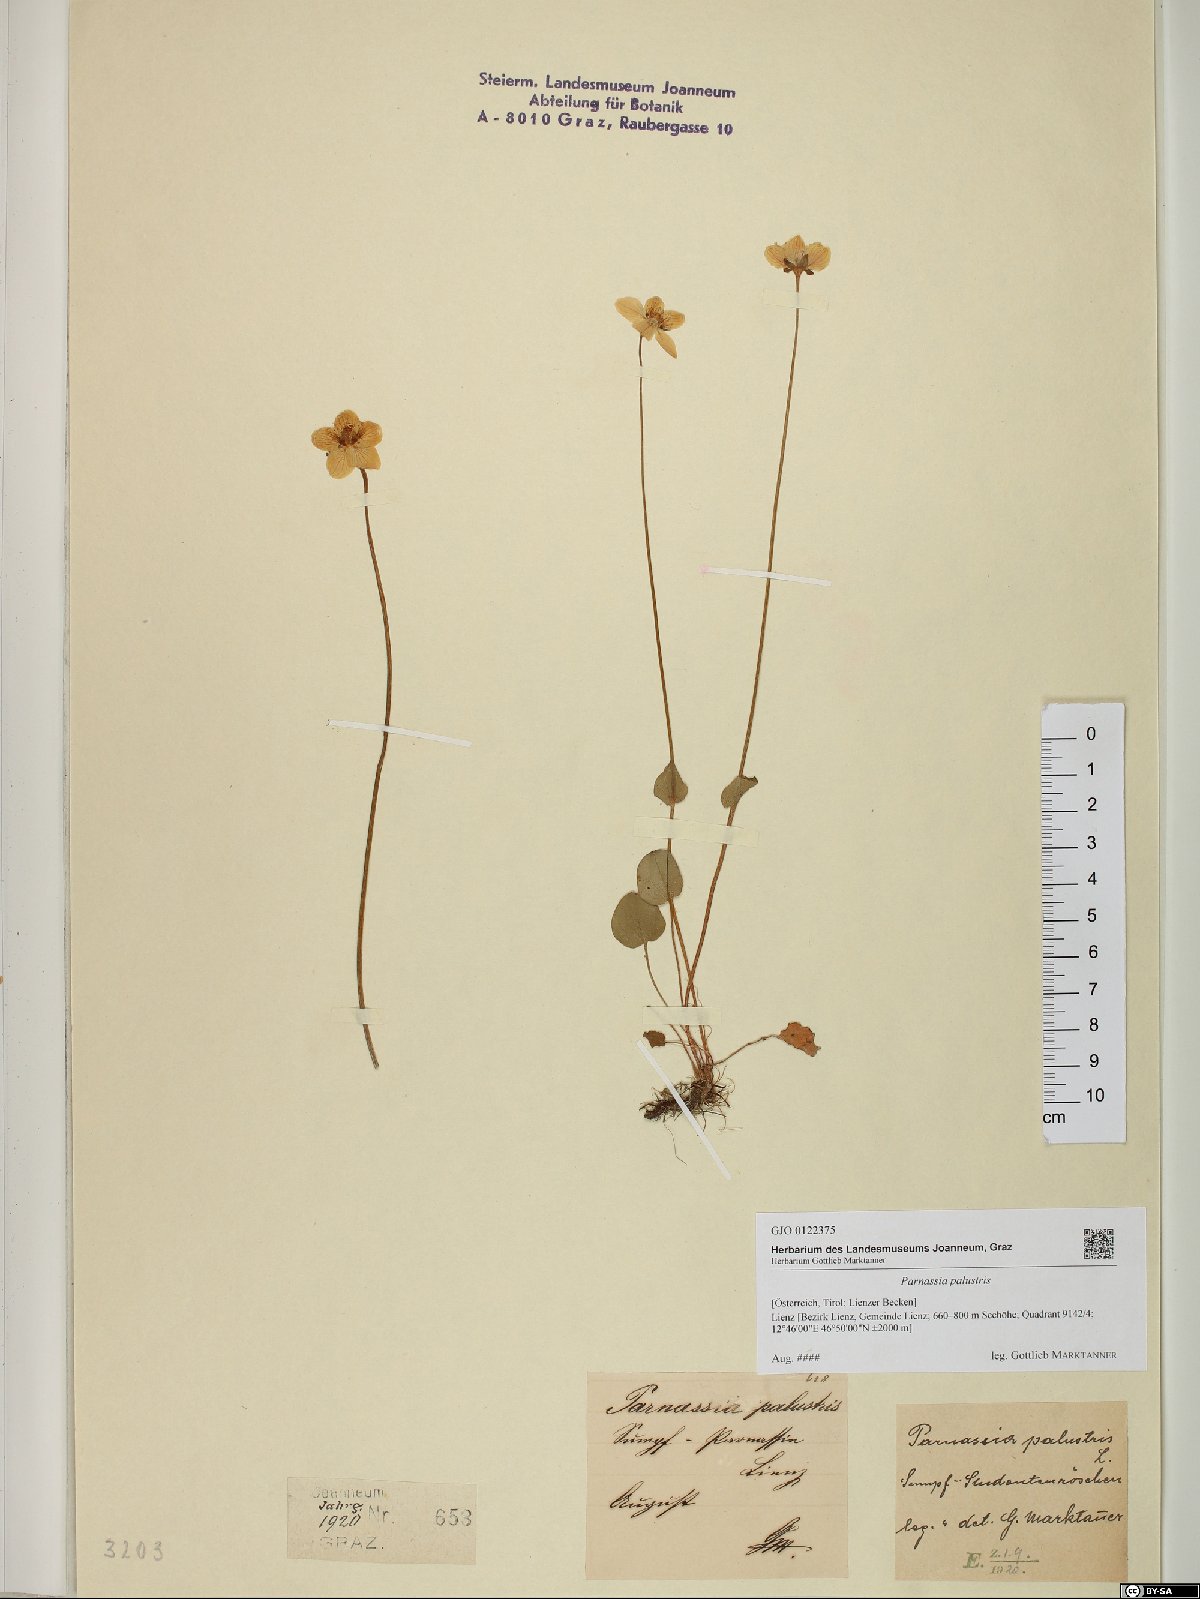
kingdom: Plantae
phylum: Tracheophyta
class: Magnoliopsida
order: Celastrales
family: Parnassiaceae
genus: Parnassia
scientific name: Parnassia palustris
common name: Grass-of-parnassus
